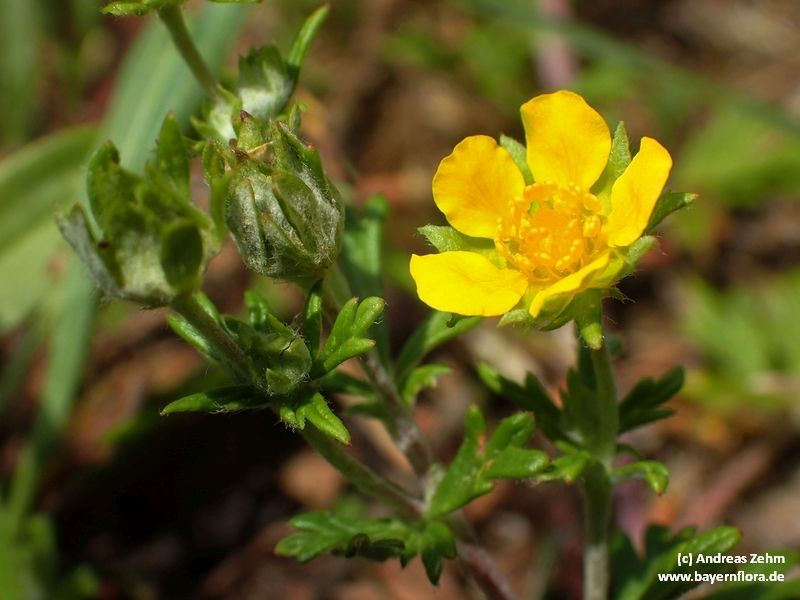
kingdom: Plantae
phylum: Tracheophyta
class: Magnoliopsida
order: Rosales
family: Rosaceae
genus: Potentilla
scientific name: Potentilla argentea
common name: Hoary cinquefoil
